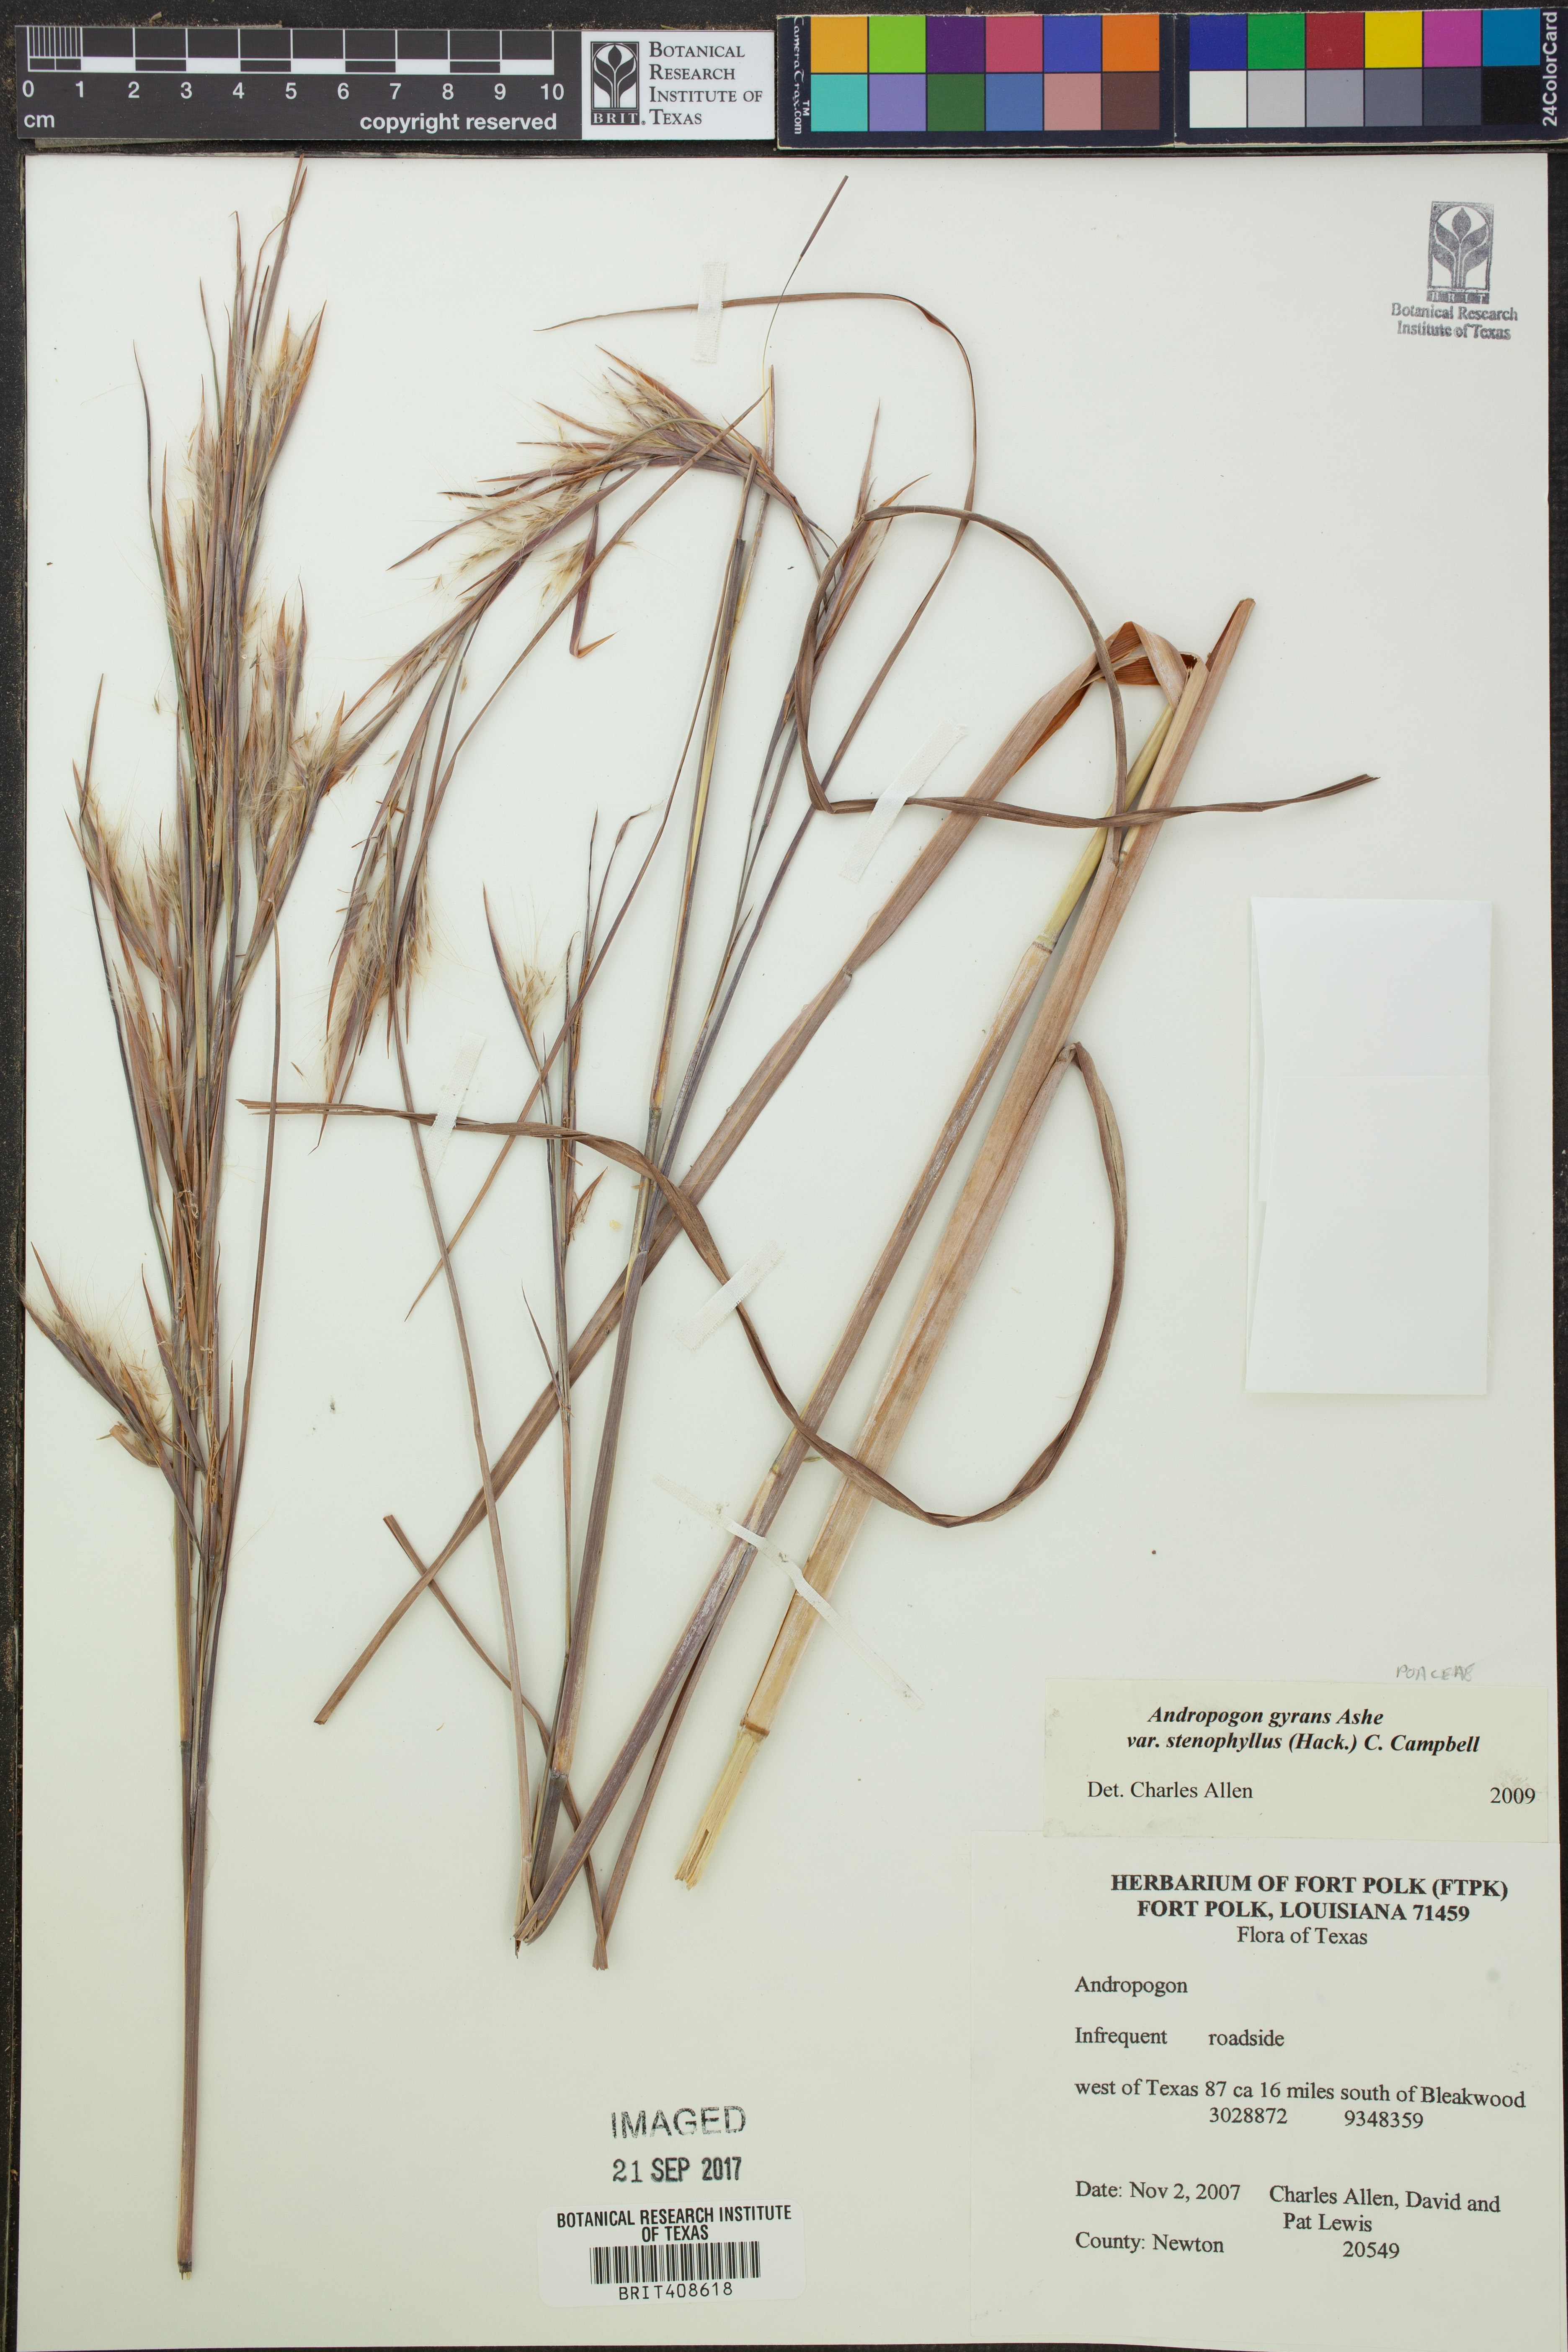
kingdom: Plantae
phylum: Tracheophyta
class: Liliopsida
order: Poales
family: Poaceae
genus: Andropogon
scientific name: Andropogon perangustatus
